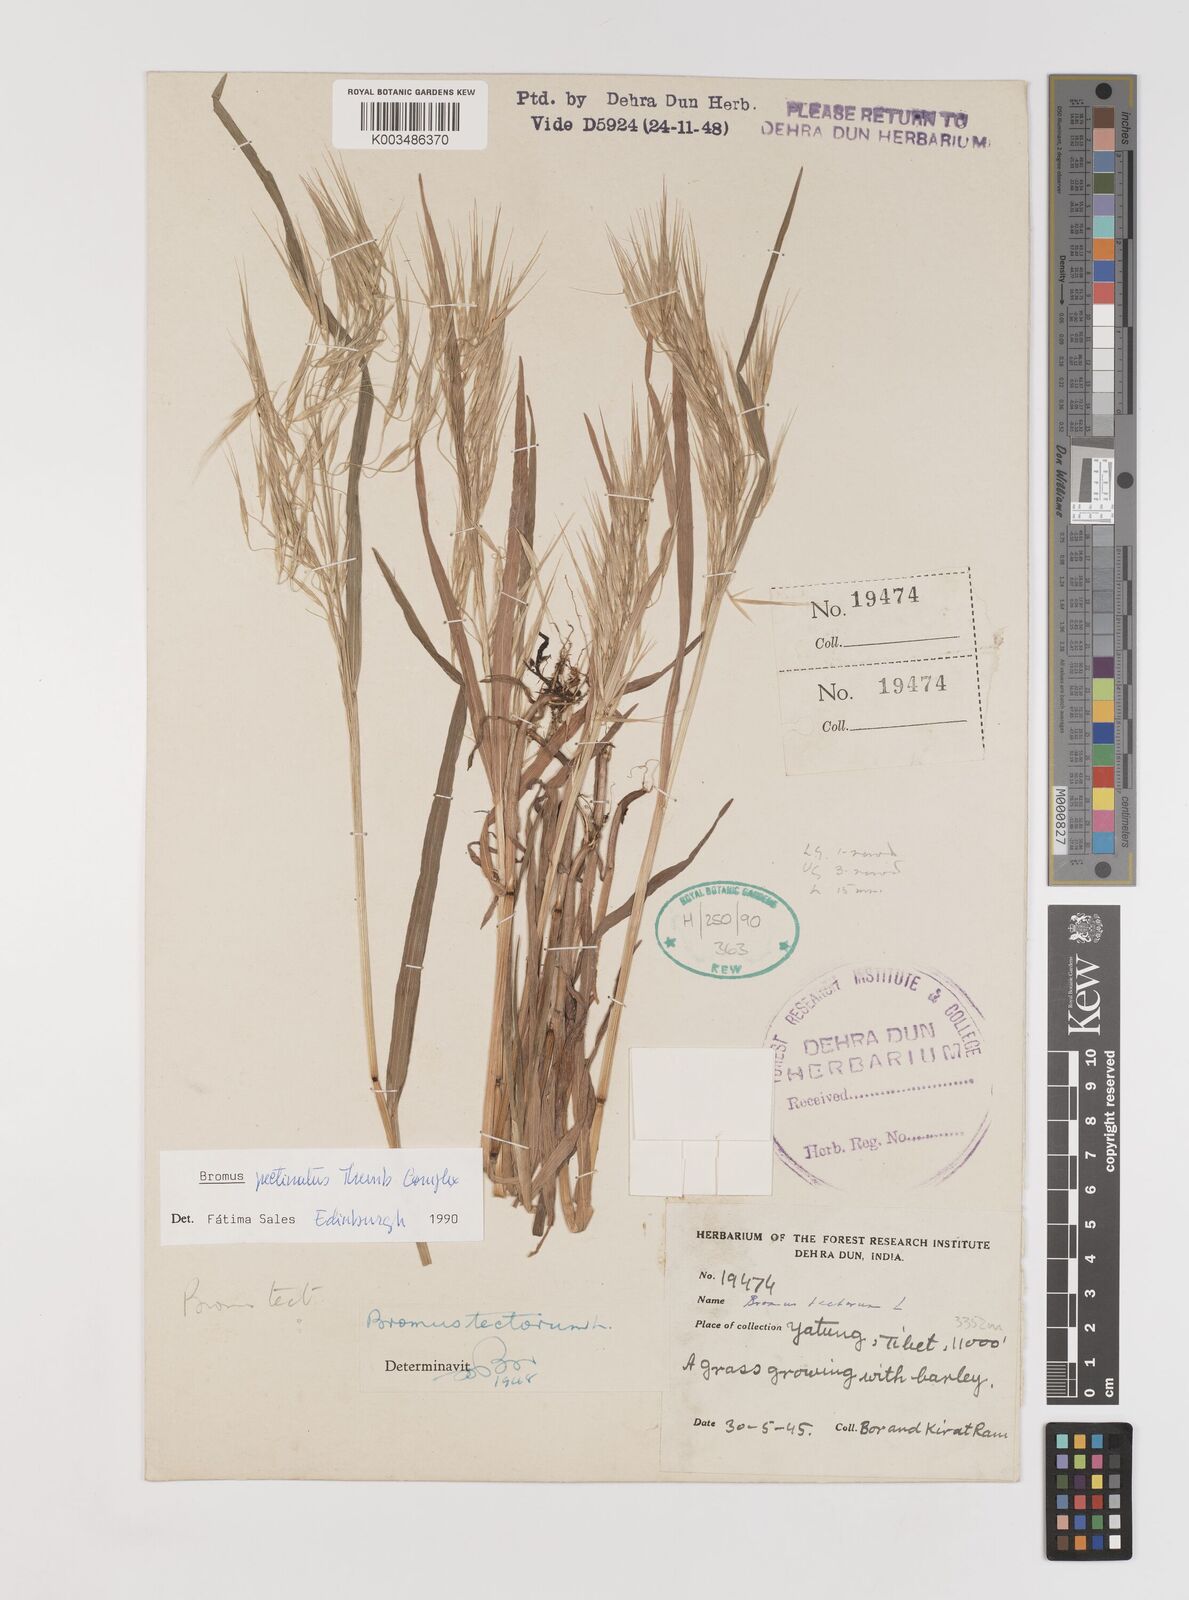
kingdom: Plantae
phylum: Tracheophyta
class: Liliopsida
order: Poales
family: Poaceae
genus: Bromus
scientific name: Bromus leptoclados
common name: Mountain bromegrass
